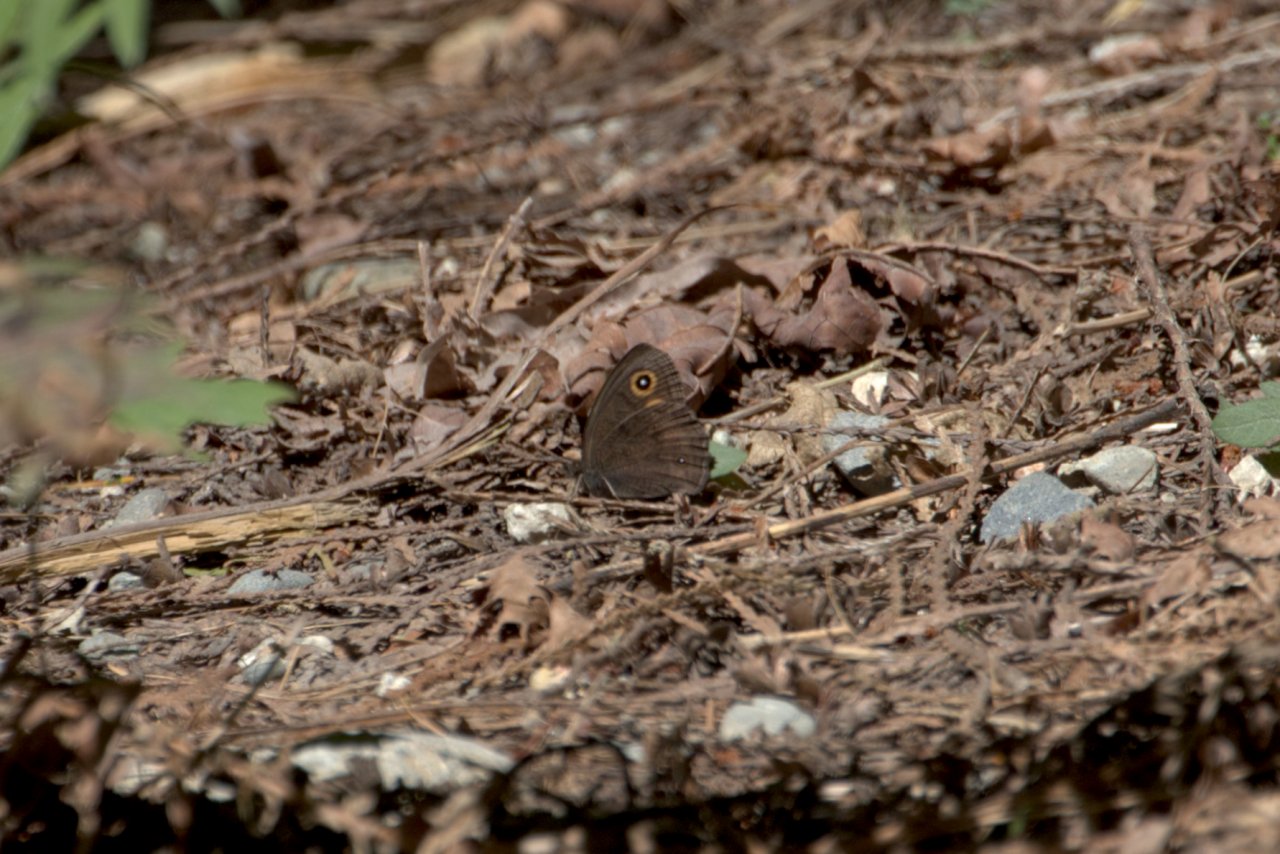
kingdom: Animalia
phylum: Arthropoda
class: Insecta
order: Lepidoptera
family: Nymphalidae
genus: Cercyonis
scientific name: Cercyonis pegala
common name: Common Wood-Nymph
